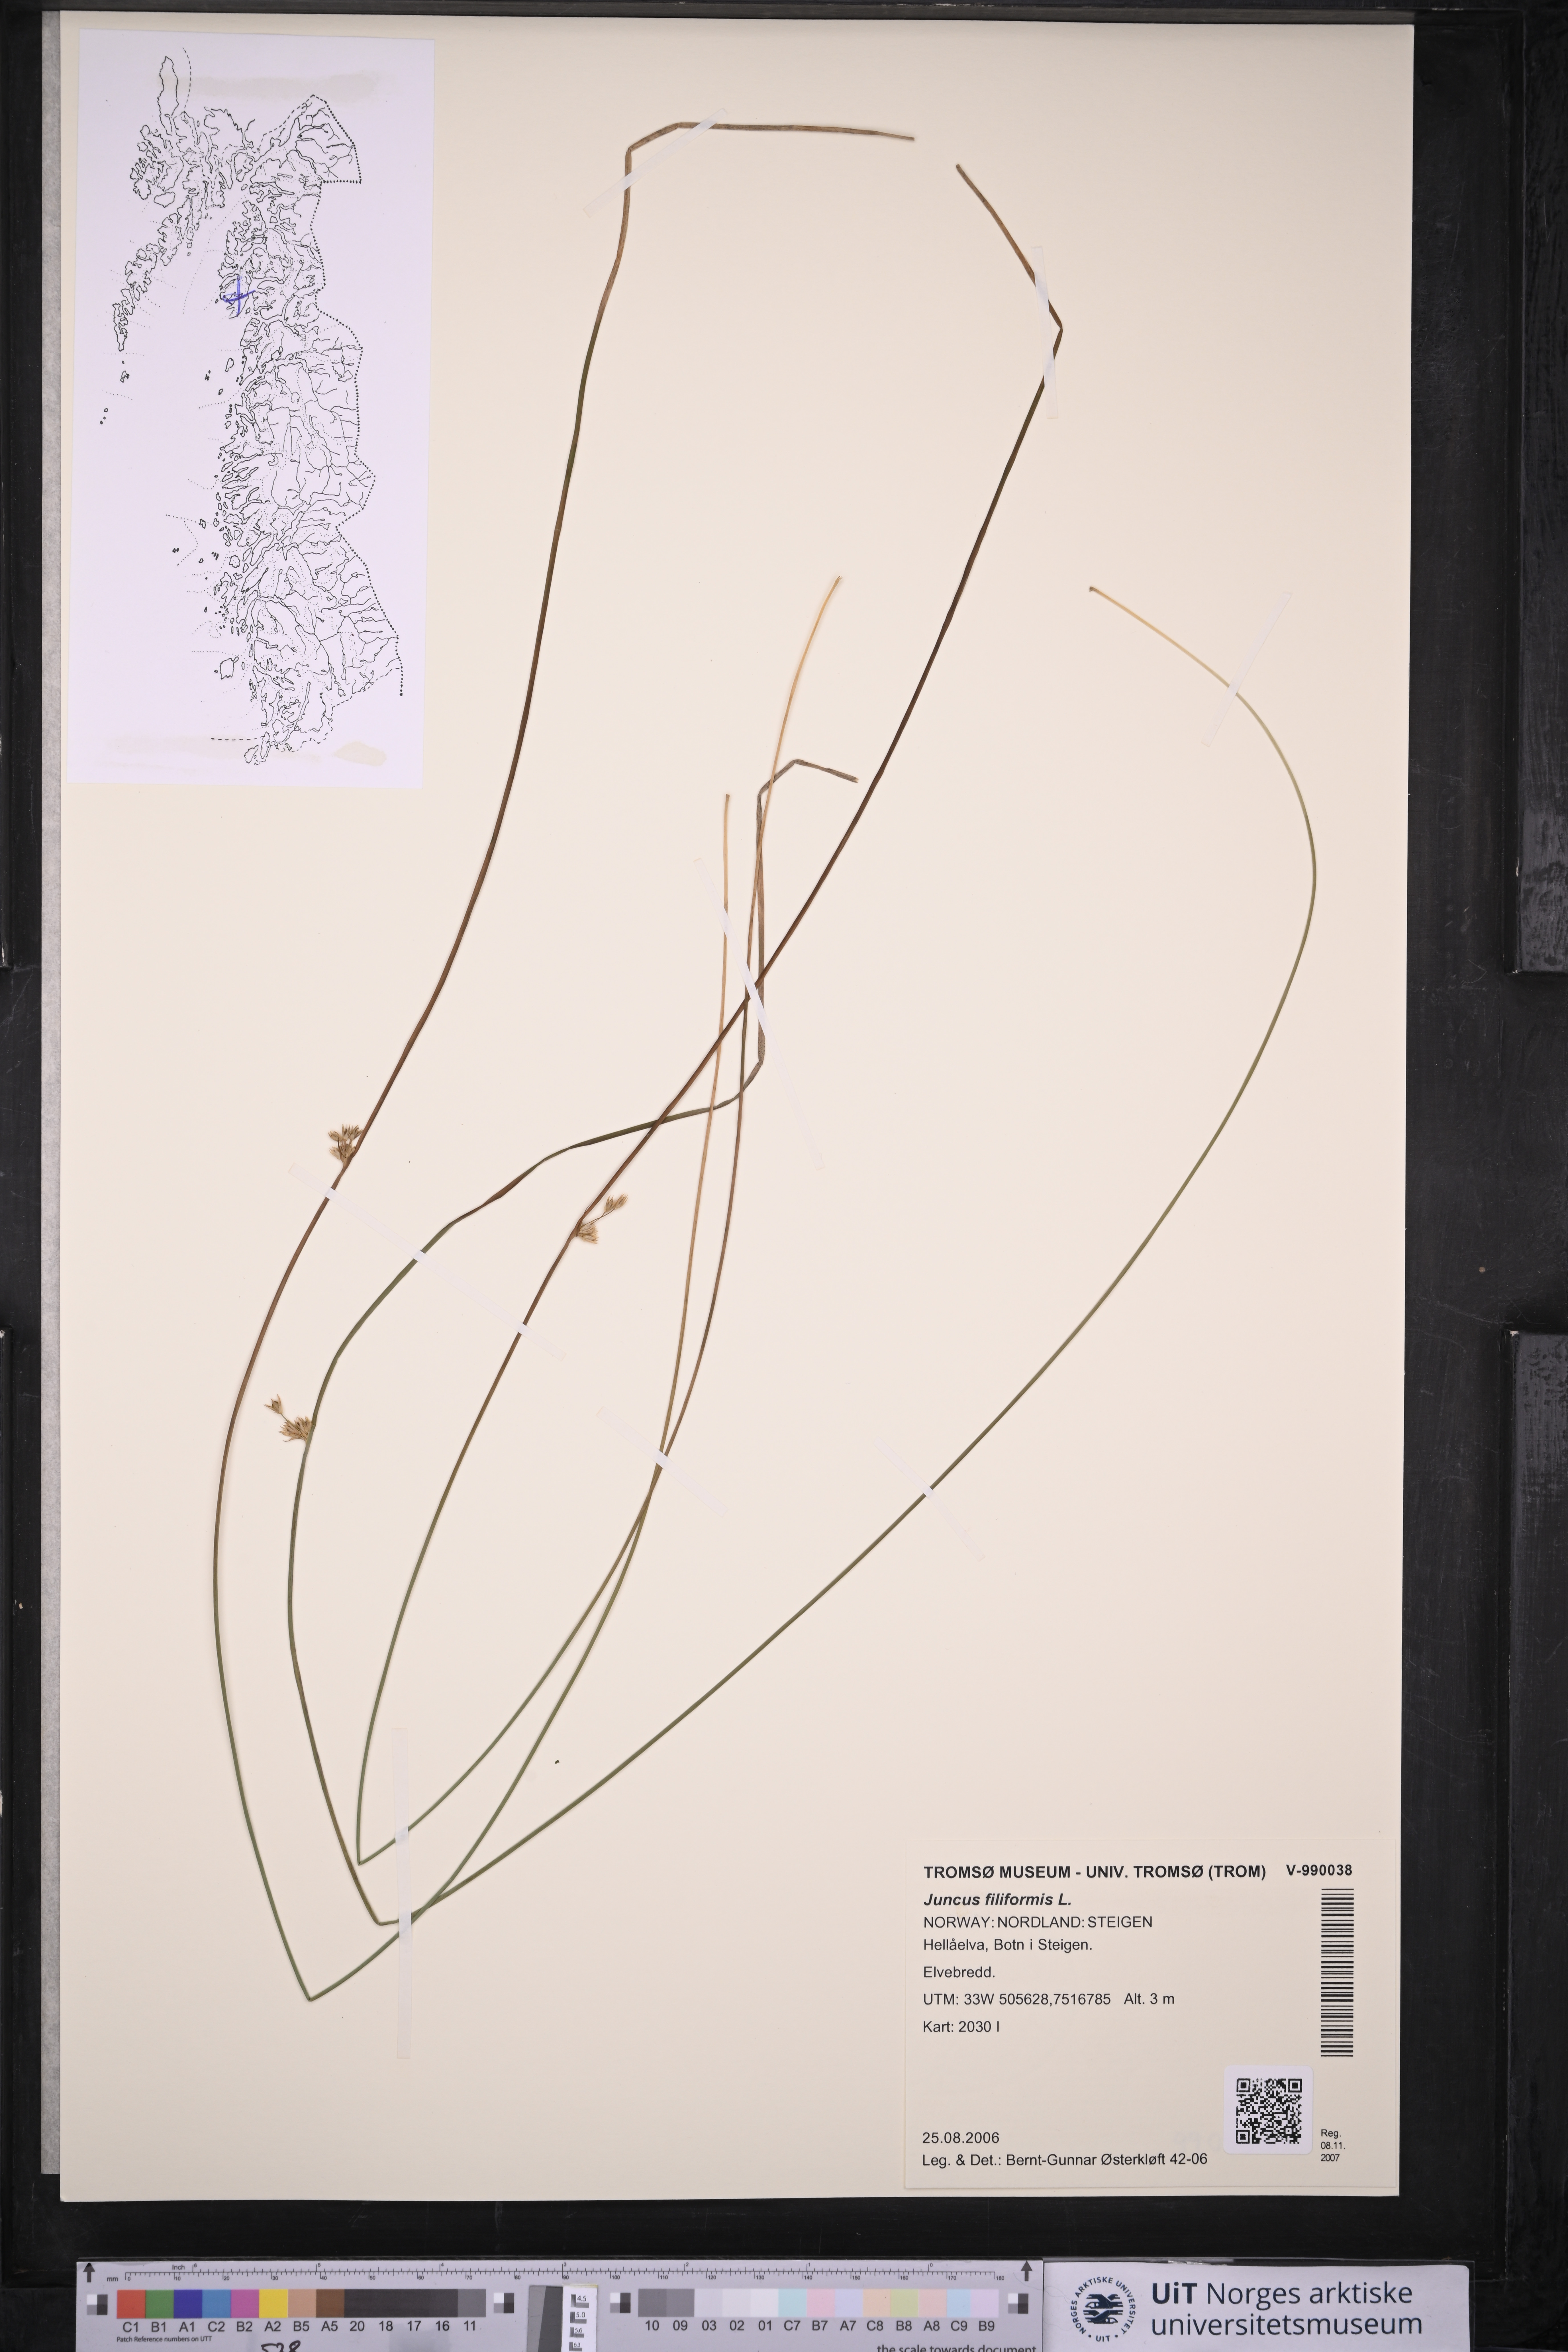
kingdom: Plantae
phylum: Tracheophyta
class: Liliopsida
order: Poales
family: Juncaceae
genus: Juncus
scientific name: Juncus filiformis
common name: Thread rush
